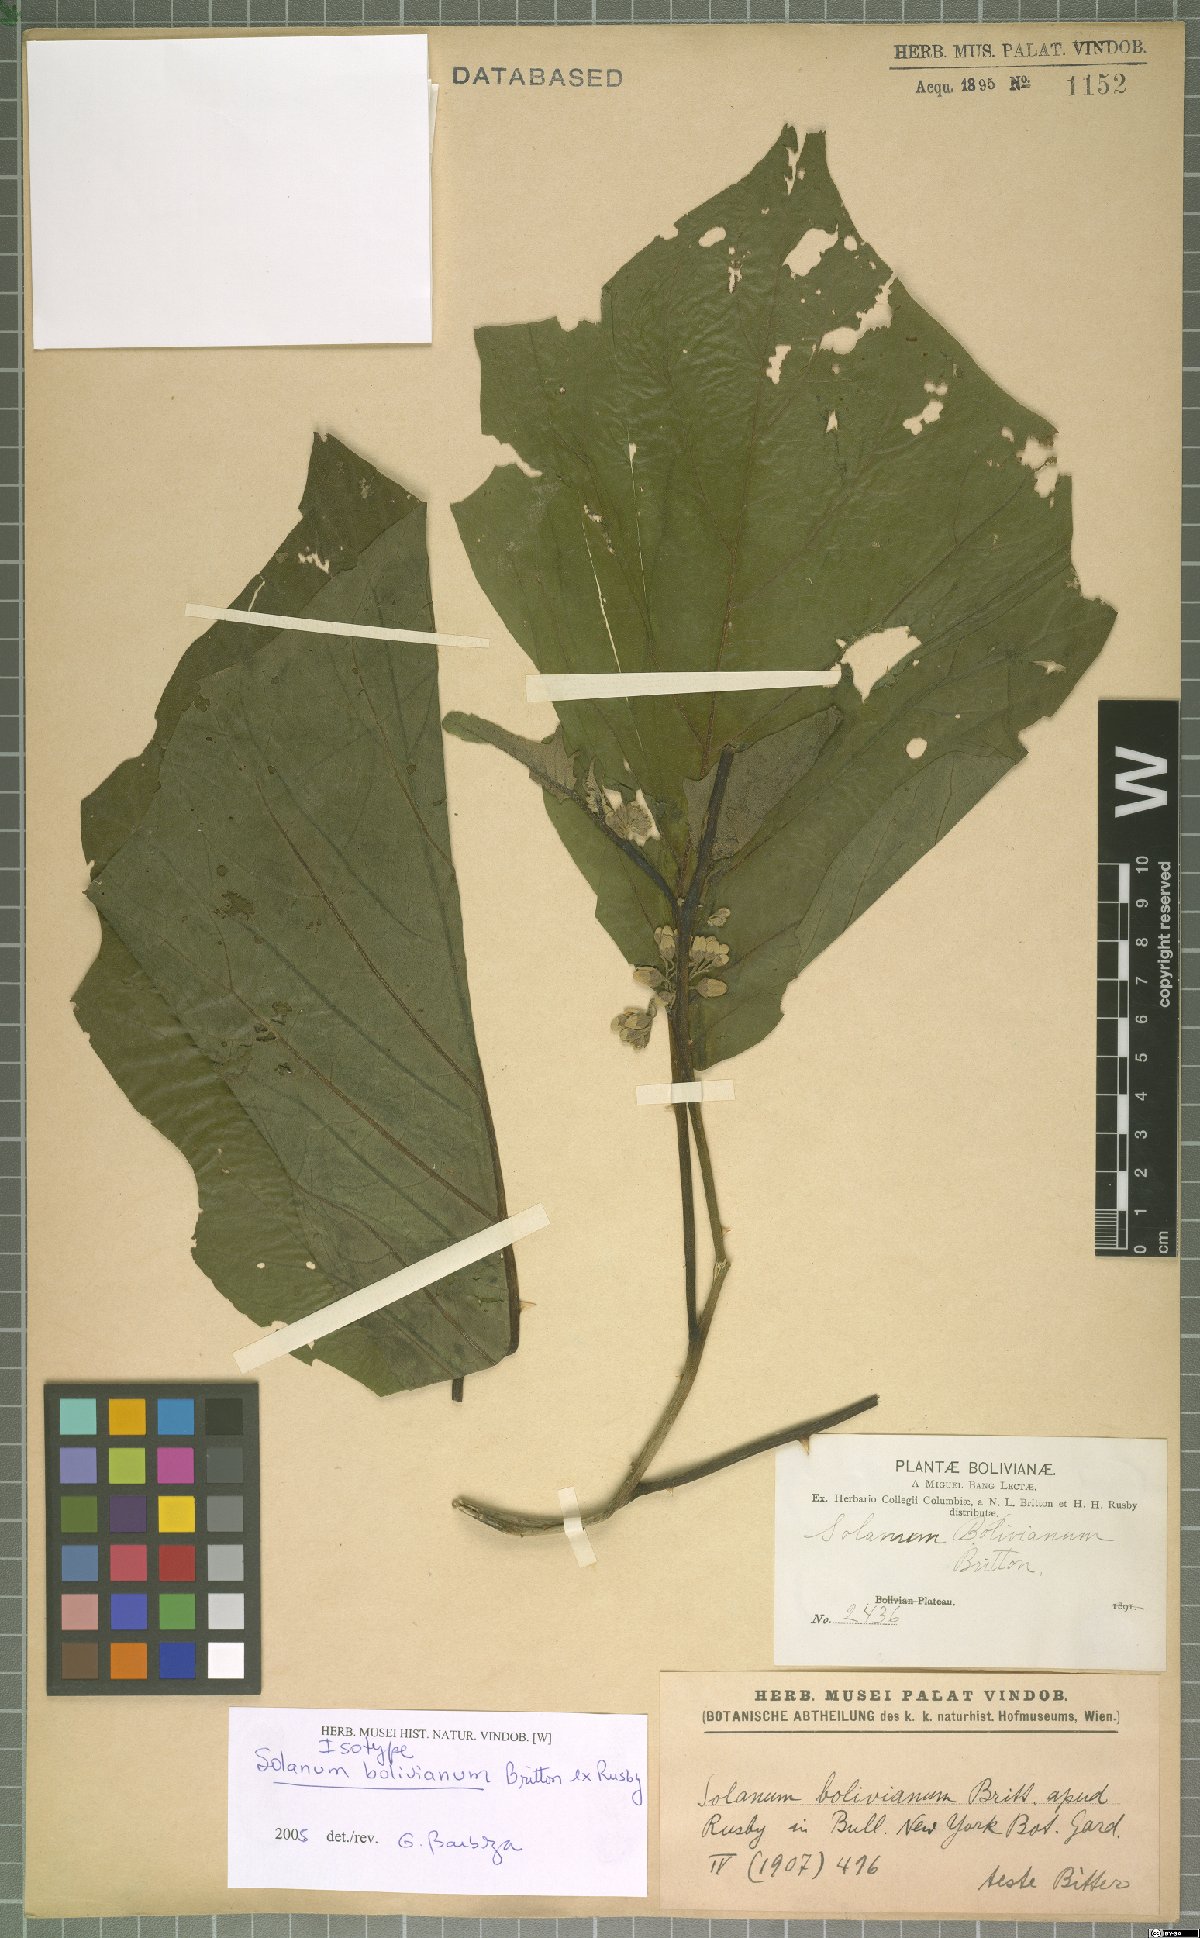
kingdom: Plantae
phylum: Tracheophyta
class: Magnoliopsida
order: Solanales
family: Solanaceae
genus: Solanum
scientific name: Solanum bolivianum
